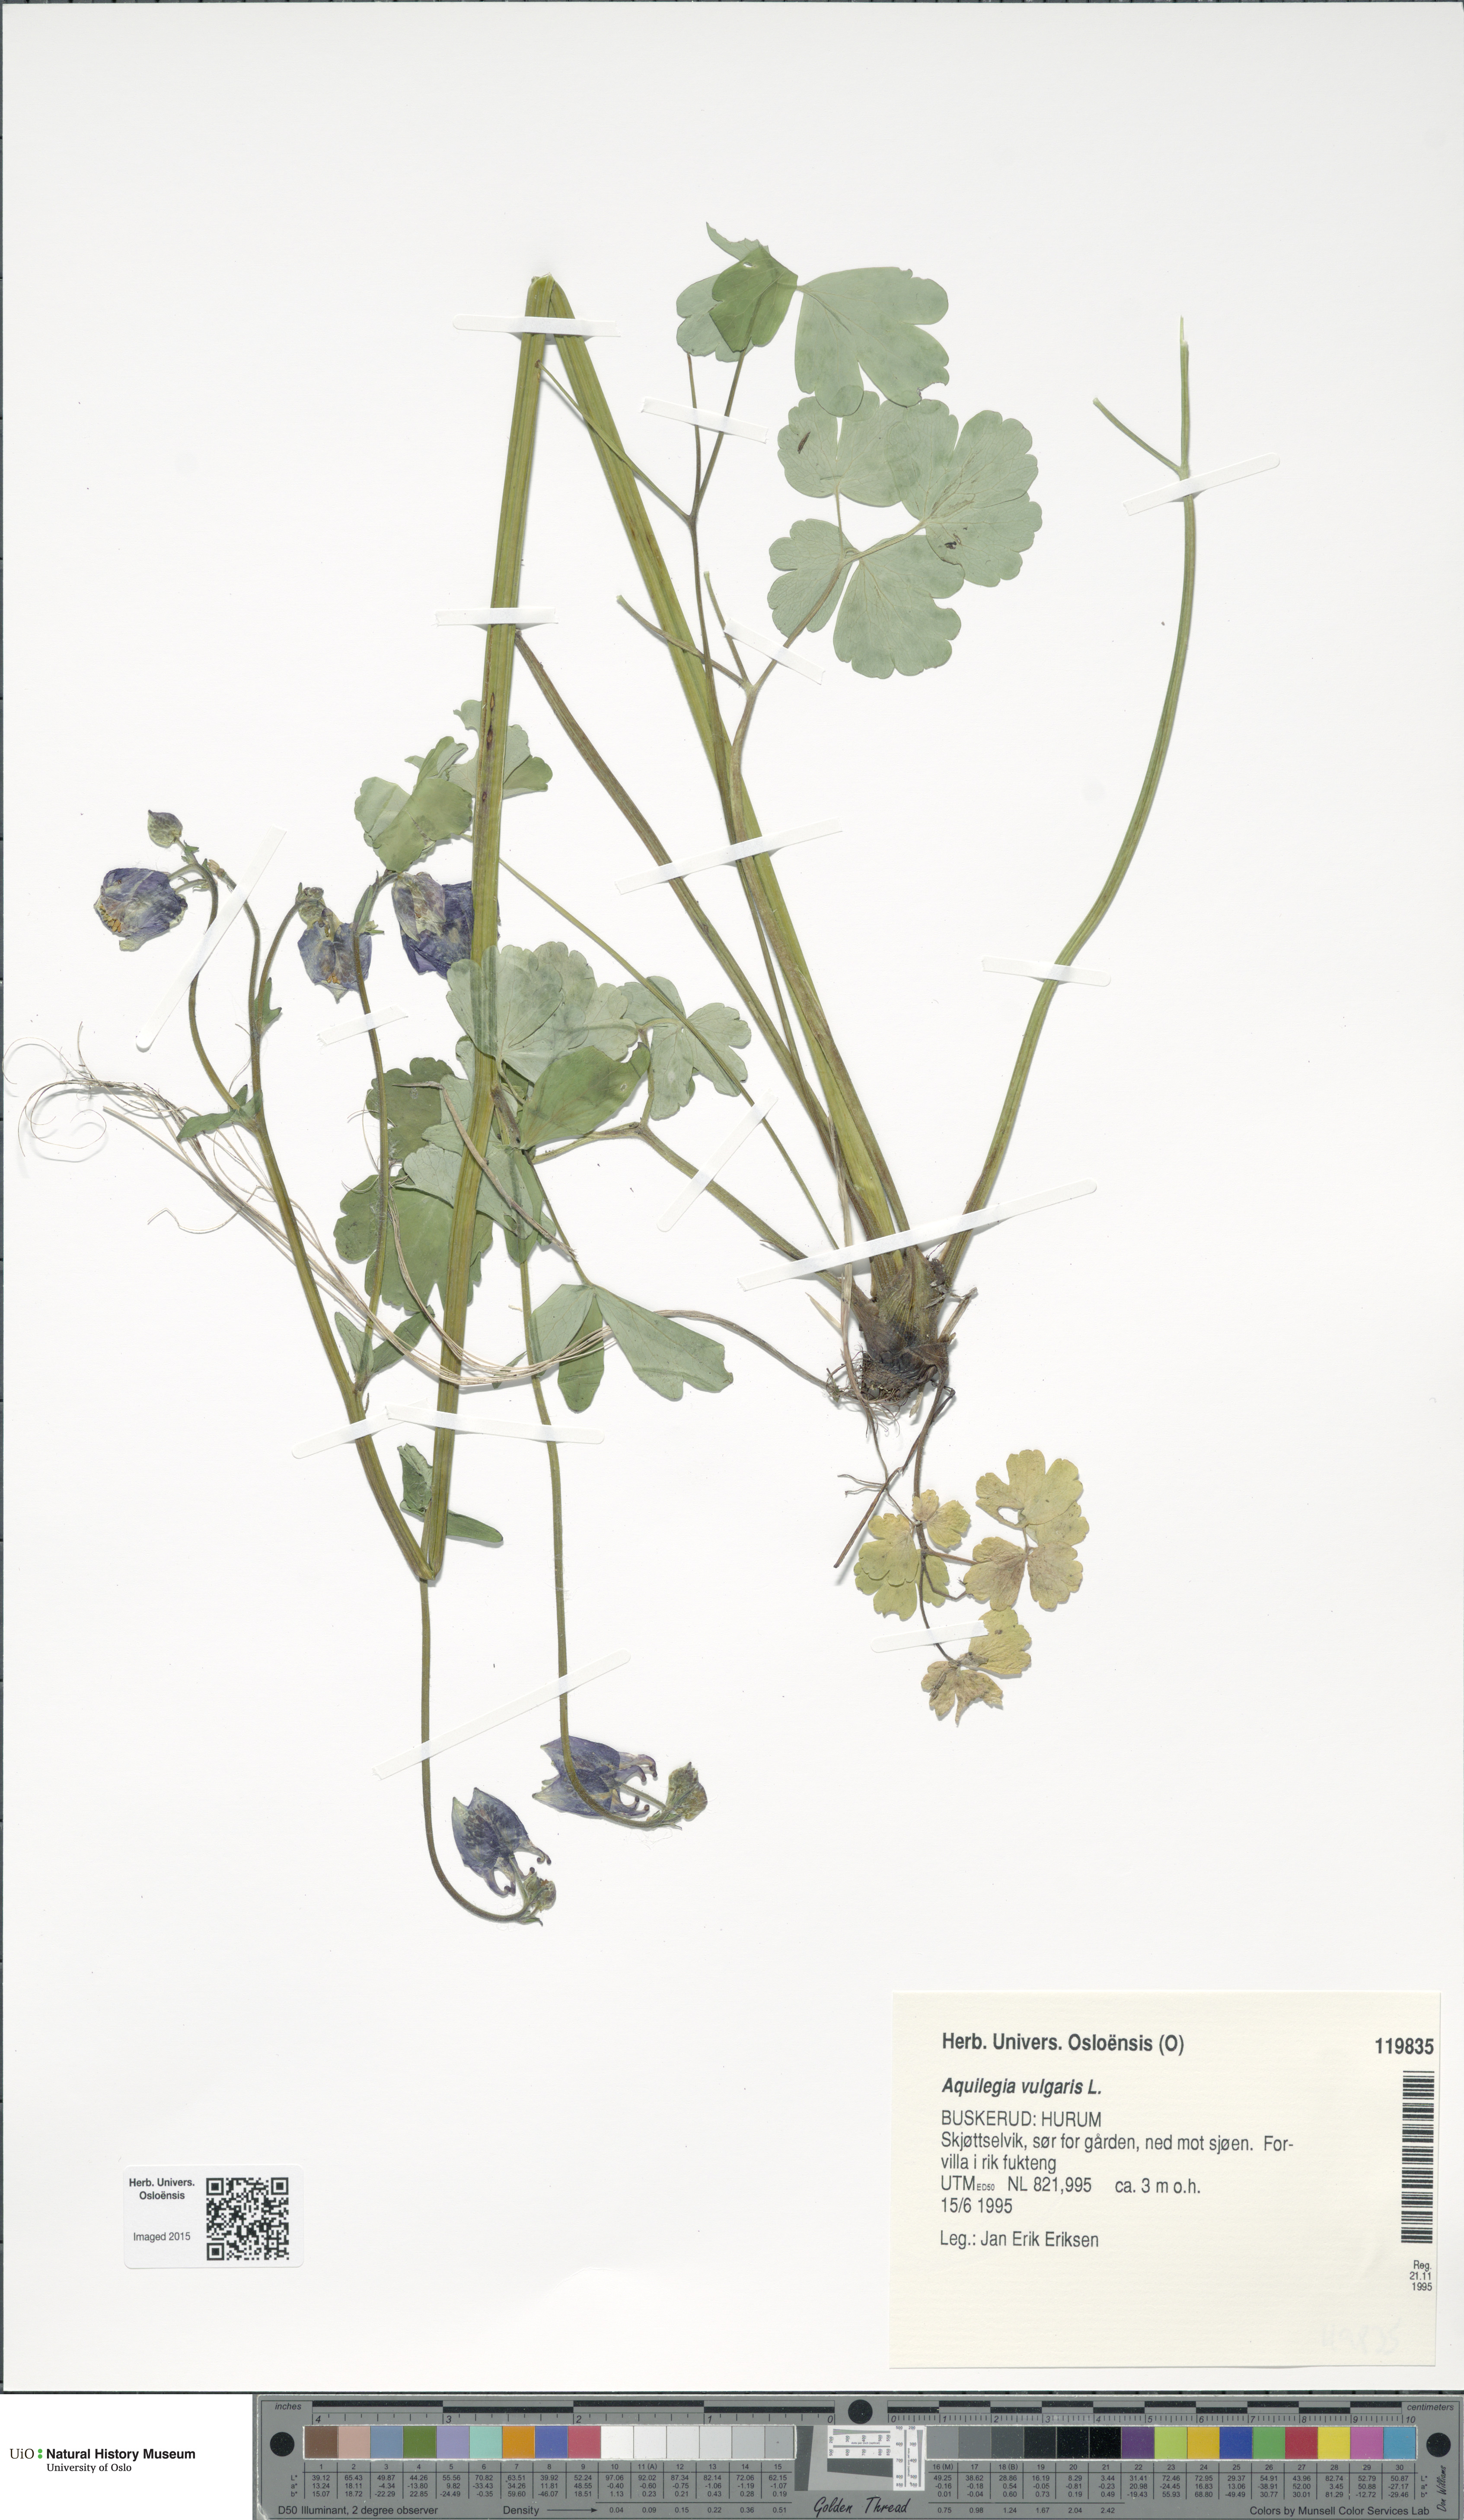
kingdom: Plantae
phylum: Tracheophyta
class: Magnoliopsida
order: Ranunculales
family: Ranunculaceae
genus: Aquilegia
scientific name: Aquilegia vulgaris
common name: Columbine
